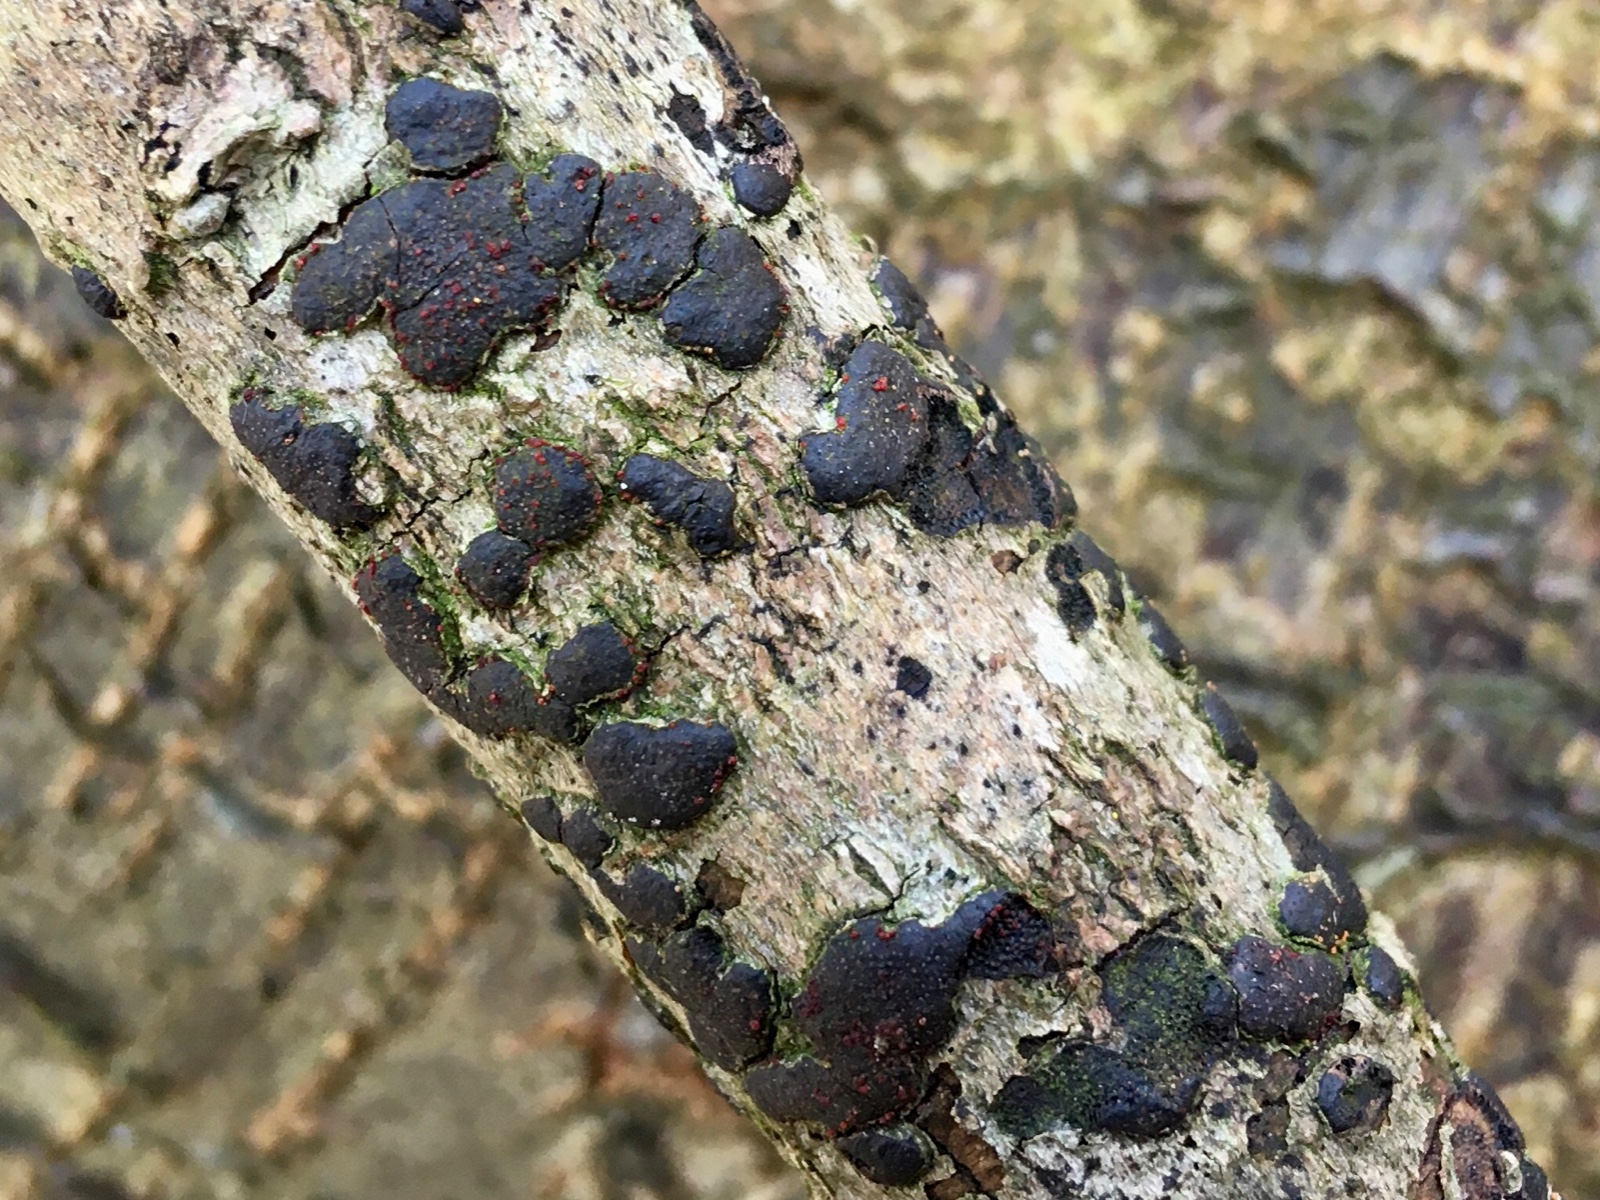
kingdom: Fungi
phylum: Ascomycota
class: Sordariomycetes
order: Hypocreales
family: Nectriaceae
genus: Dialonectria
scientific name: Dialonectria diatrypicola
